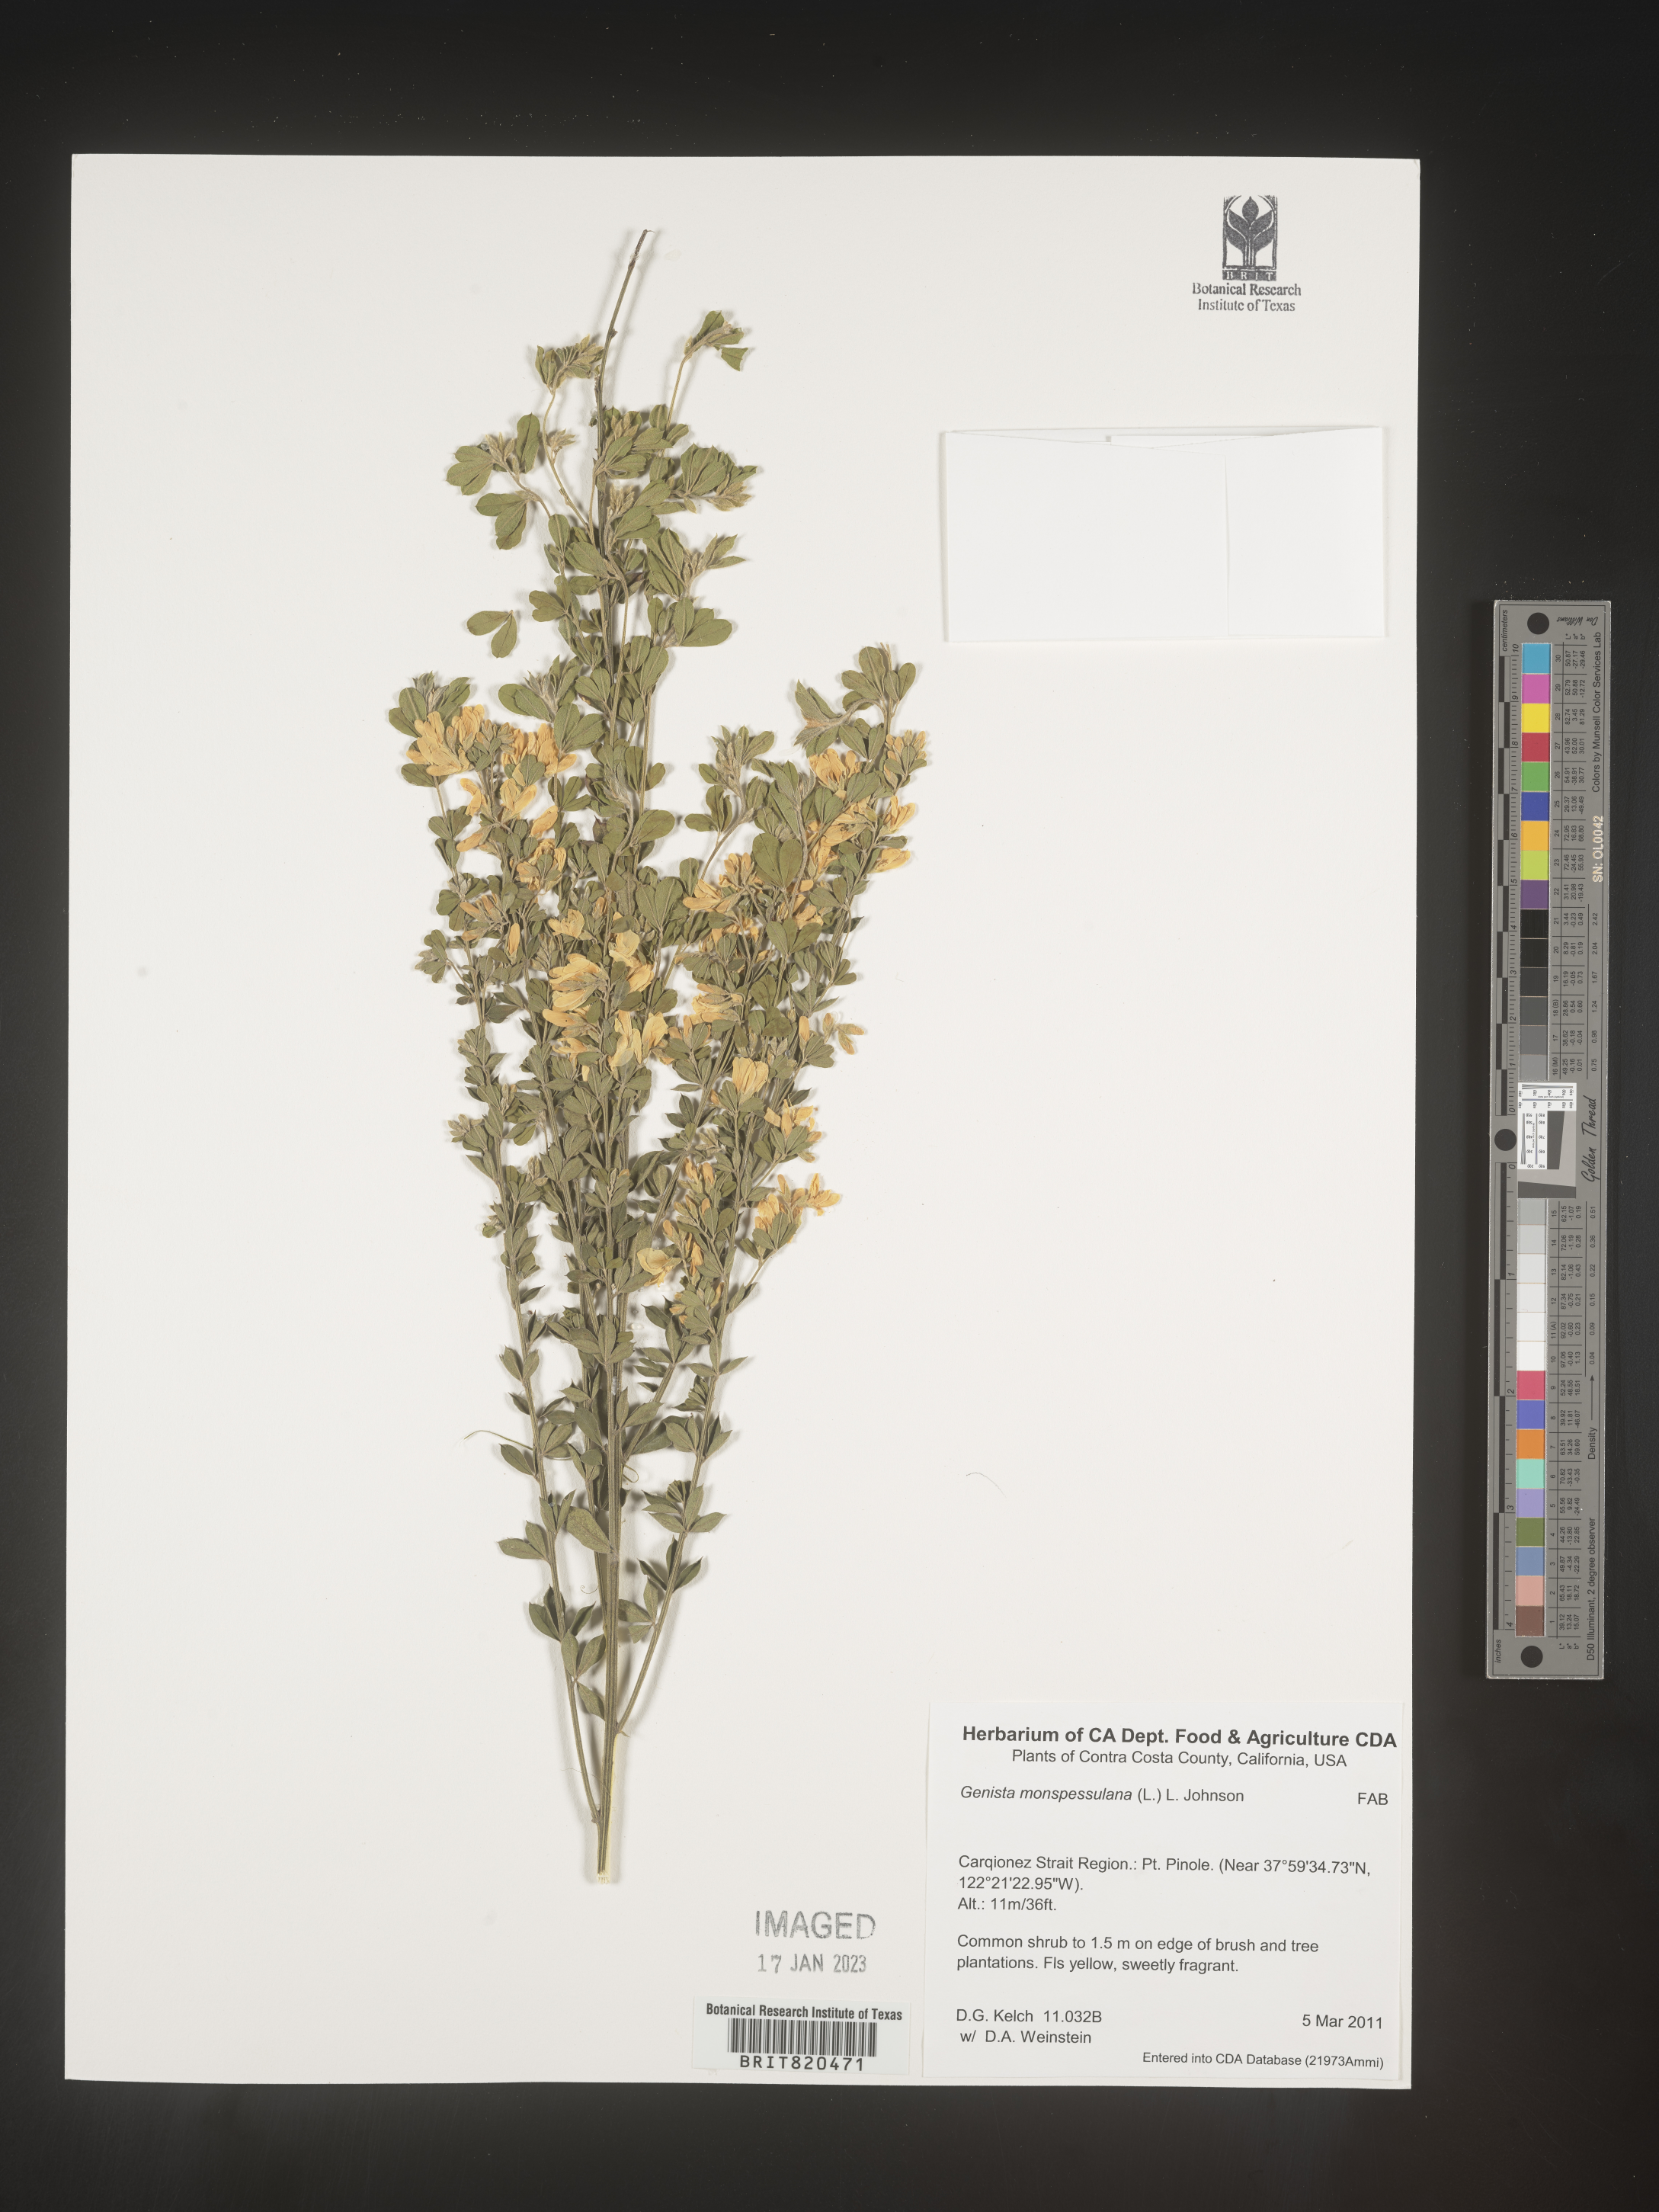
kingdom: Plantae
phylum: Tracheophyta
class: Magnoliopsida
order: Fabales
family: Fabaceae
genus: Genista
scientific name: Genista
